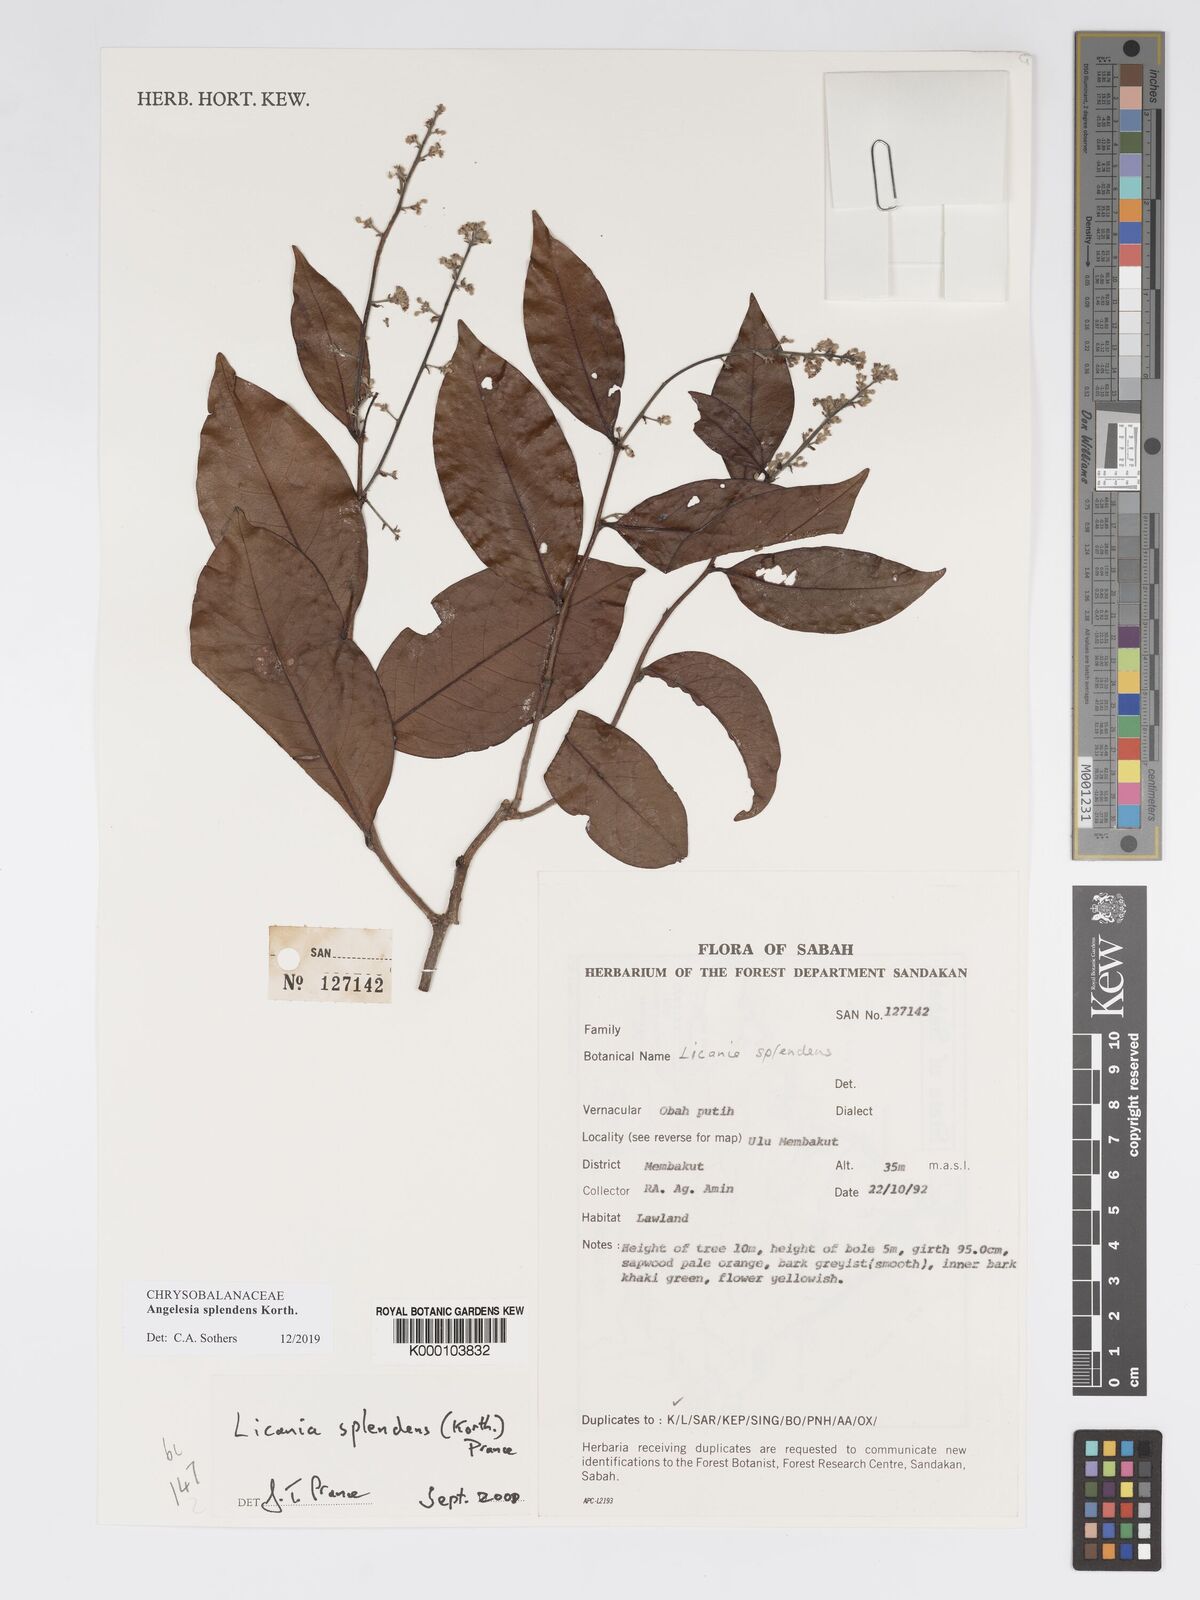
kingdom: Plantae
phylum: Tracheophyta
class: Magnoliopsida
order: Malpighiales
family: Chrysobalanaceae
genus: Angelesia
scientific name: Angelesia splendens
